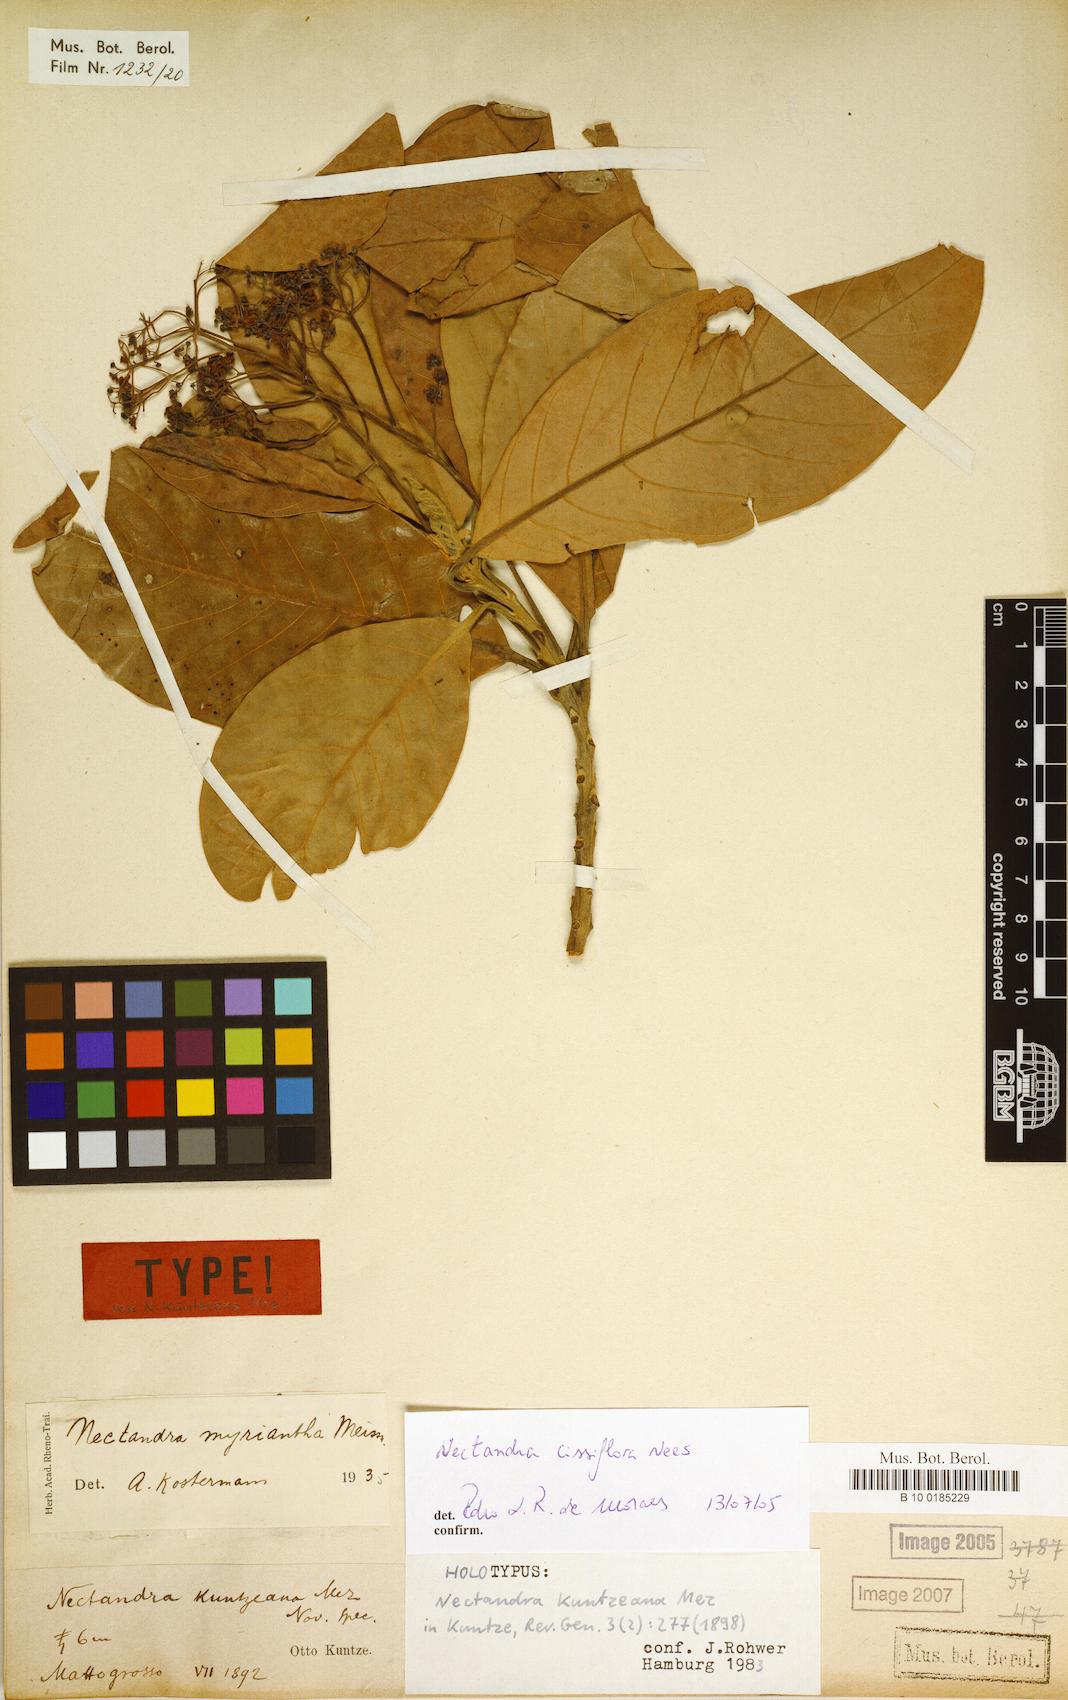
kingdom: Plantae
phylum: Tracheophyta
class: Magnoliopsida
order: Laurales
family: Lauraceae
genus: Nectandra
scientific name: Nectandra cissiflora
